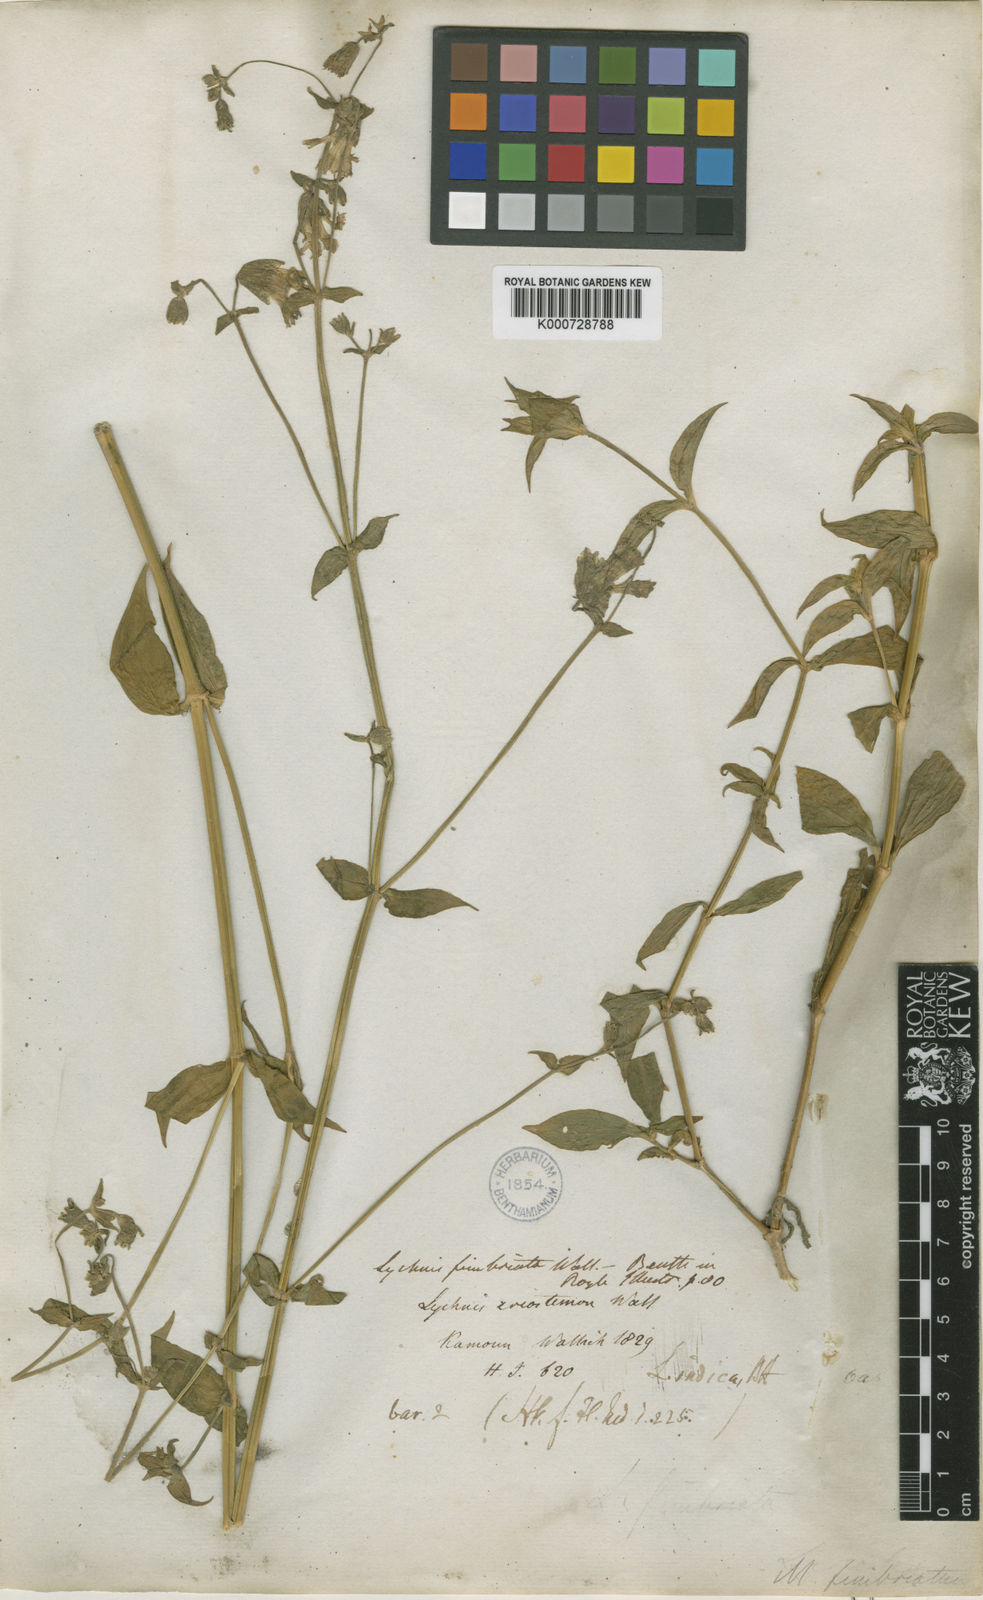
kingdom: Plantae
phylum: Tracheophyta
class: Magnoliopsida
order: Caryophyllales
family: Caryophyllaceae
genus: Silene
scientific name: Silene edgeworthii
